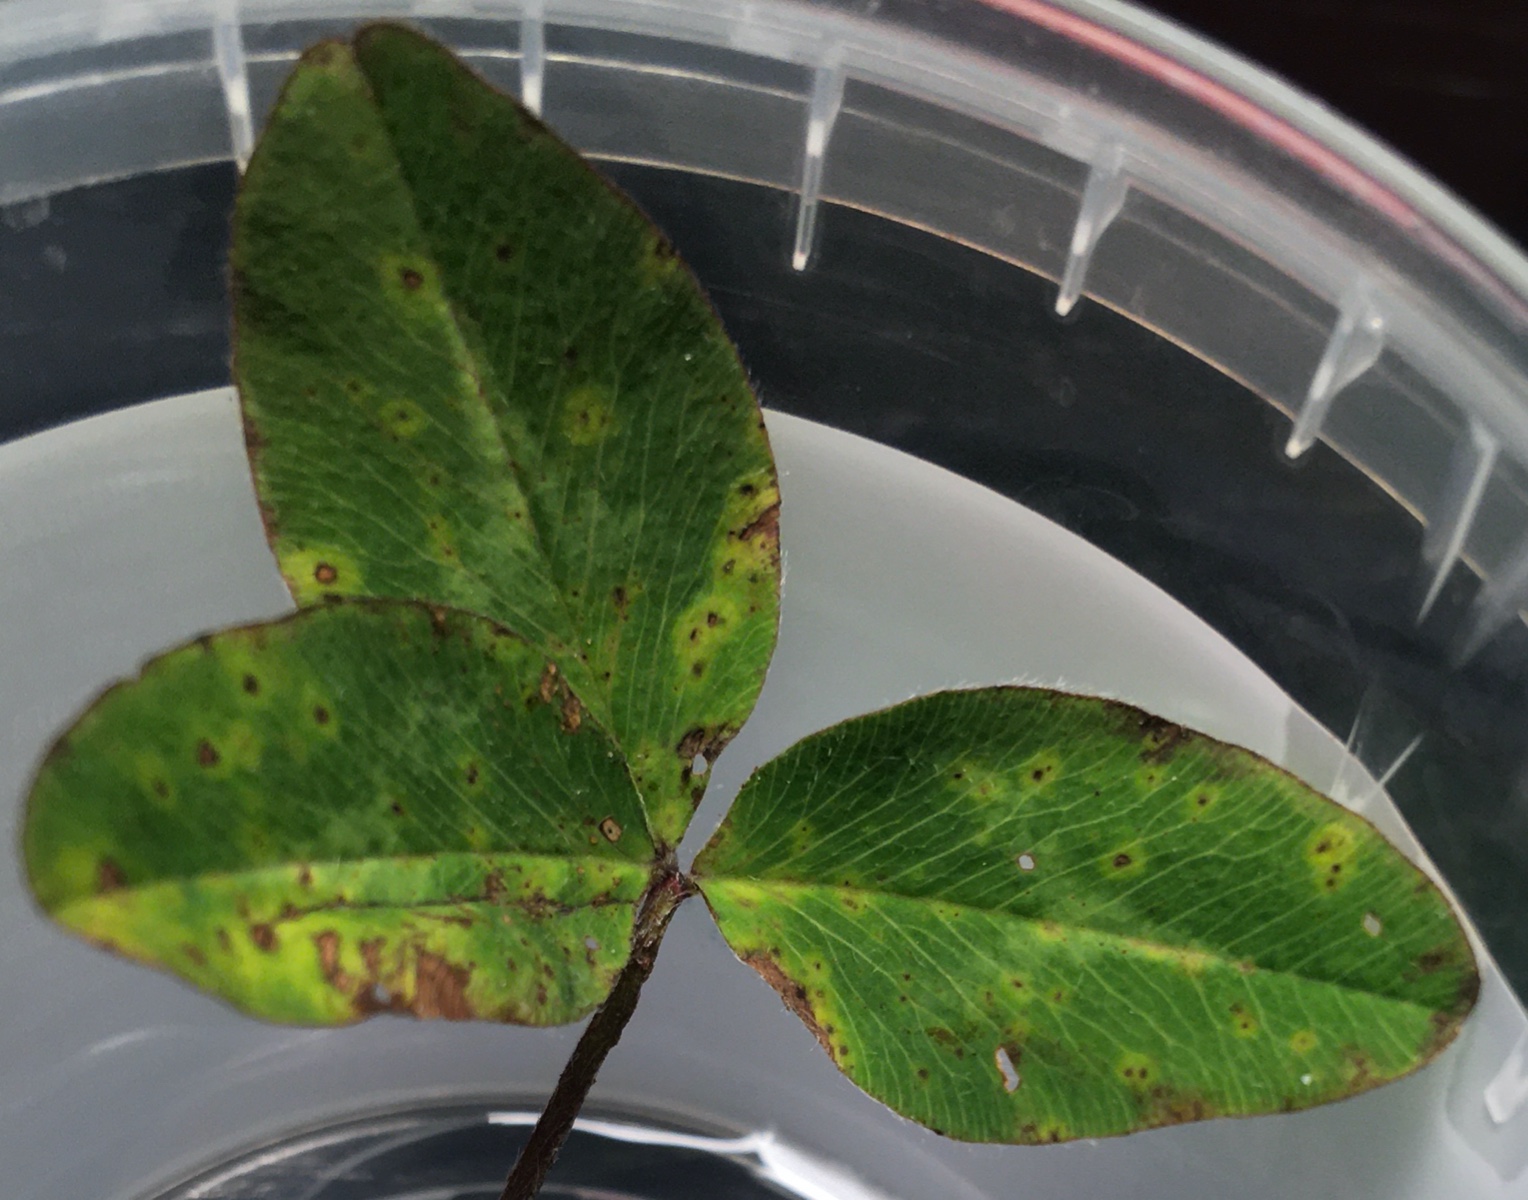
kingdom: Fungi
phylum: Basidiomycota
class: Pucciniomycetes
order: Pucciniales
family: Pucciniaceae
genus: Uromyces
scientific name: Uromyces fallens
